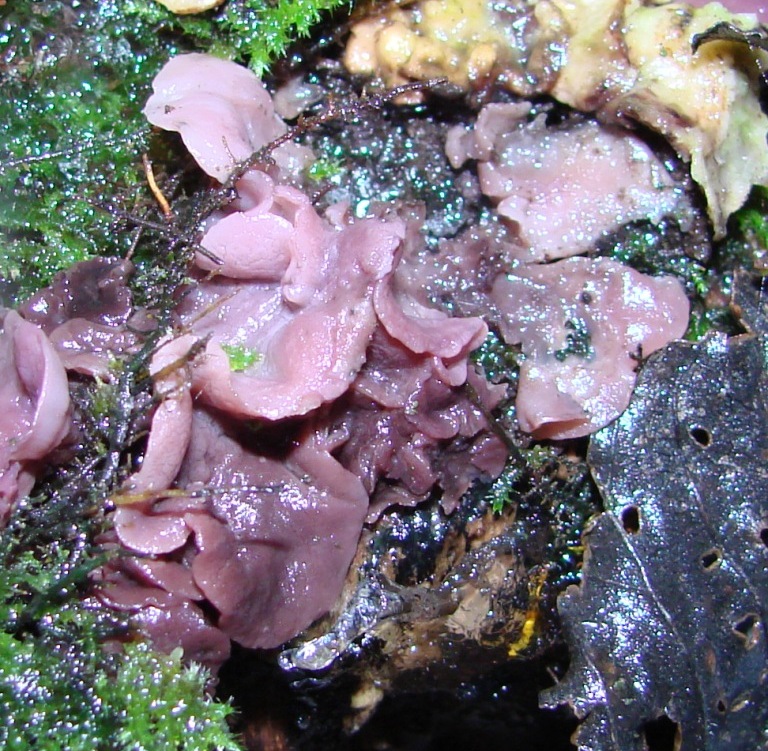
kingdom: Fungi
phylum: Ascomycota
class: Leotiomycetes
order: Helotiales
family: Gelatinodiscaceae
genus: Ascocoryne
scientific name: Ascocoryne cylichnium
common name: stor sejskive
